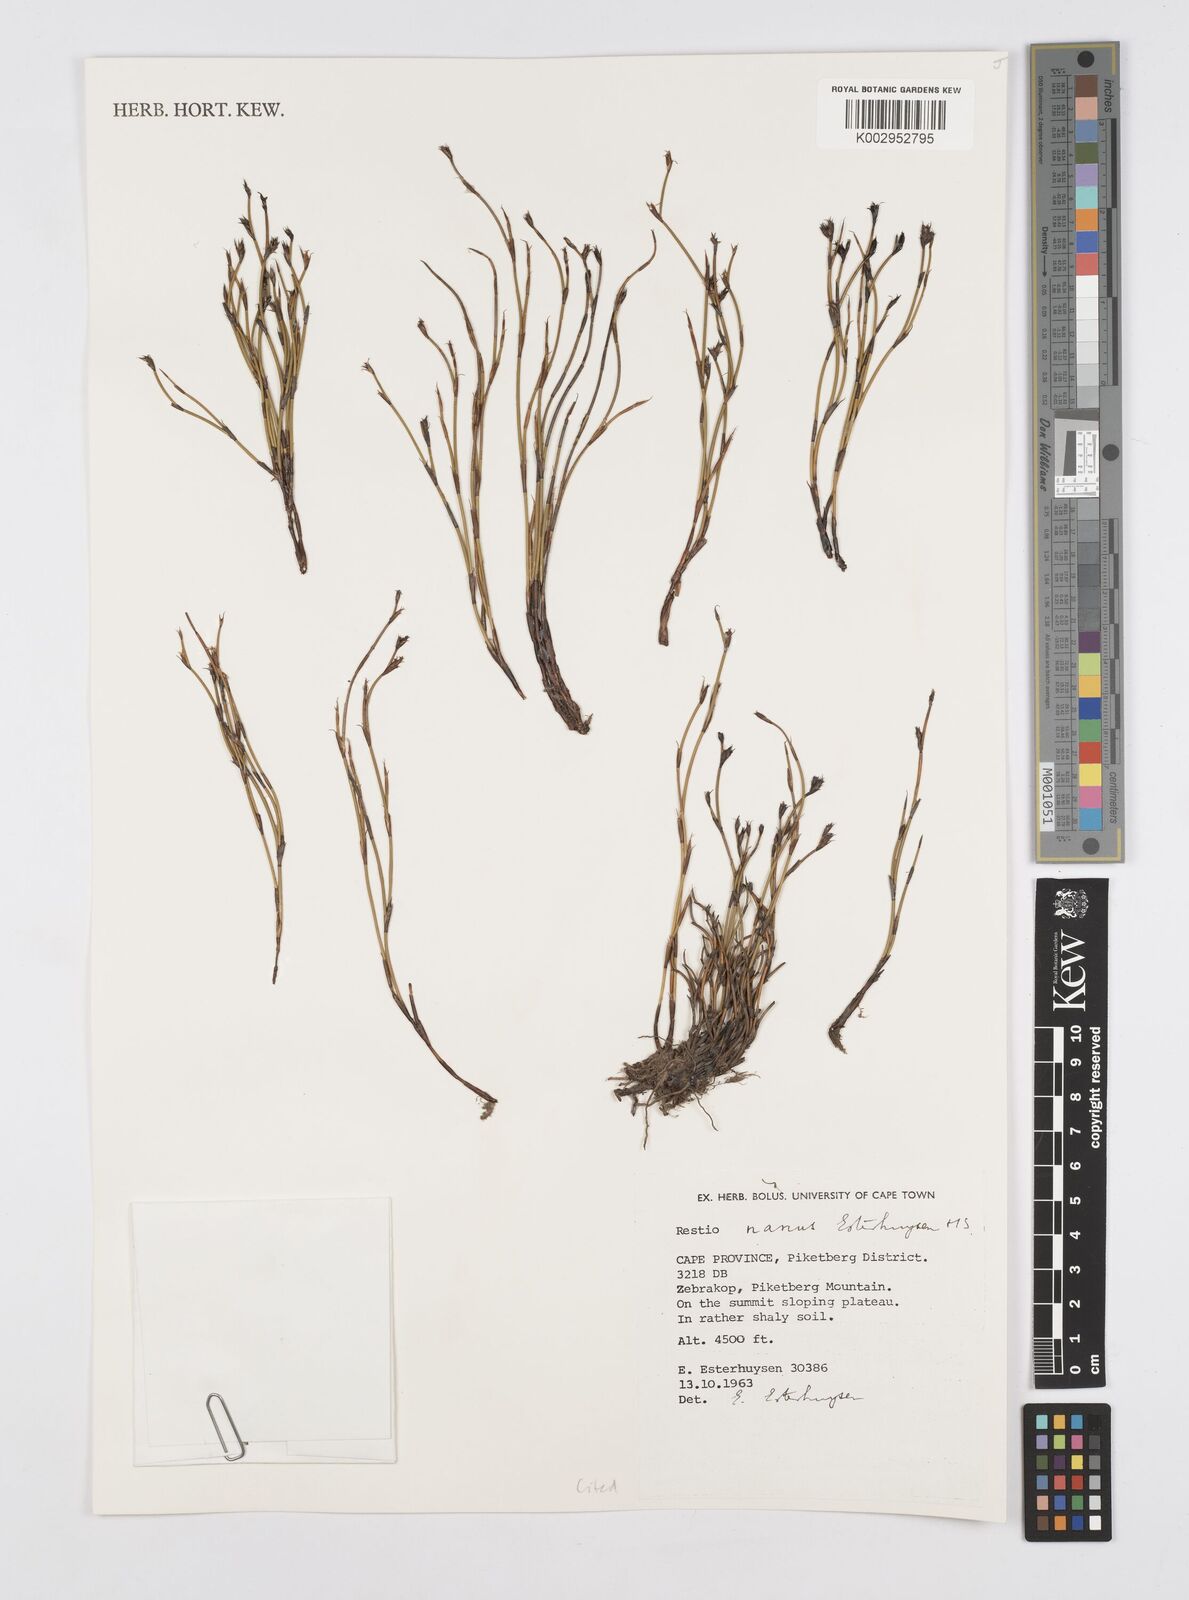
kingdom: Plantae
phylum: Tracheophyta
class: Liliopsida
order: Poales
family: Restionaceae
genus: Restio
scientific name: Restio nanus
